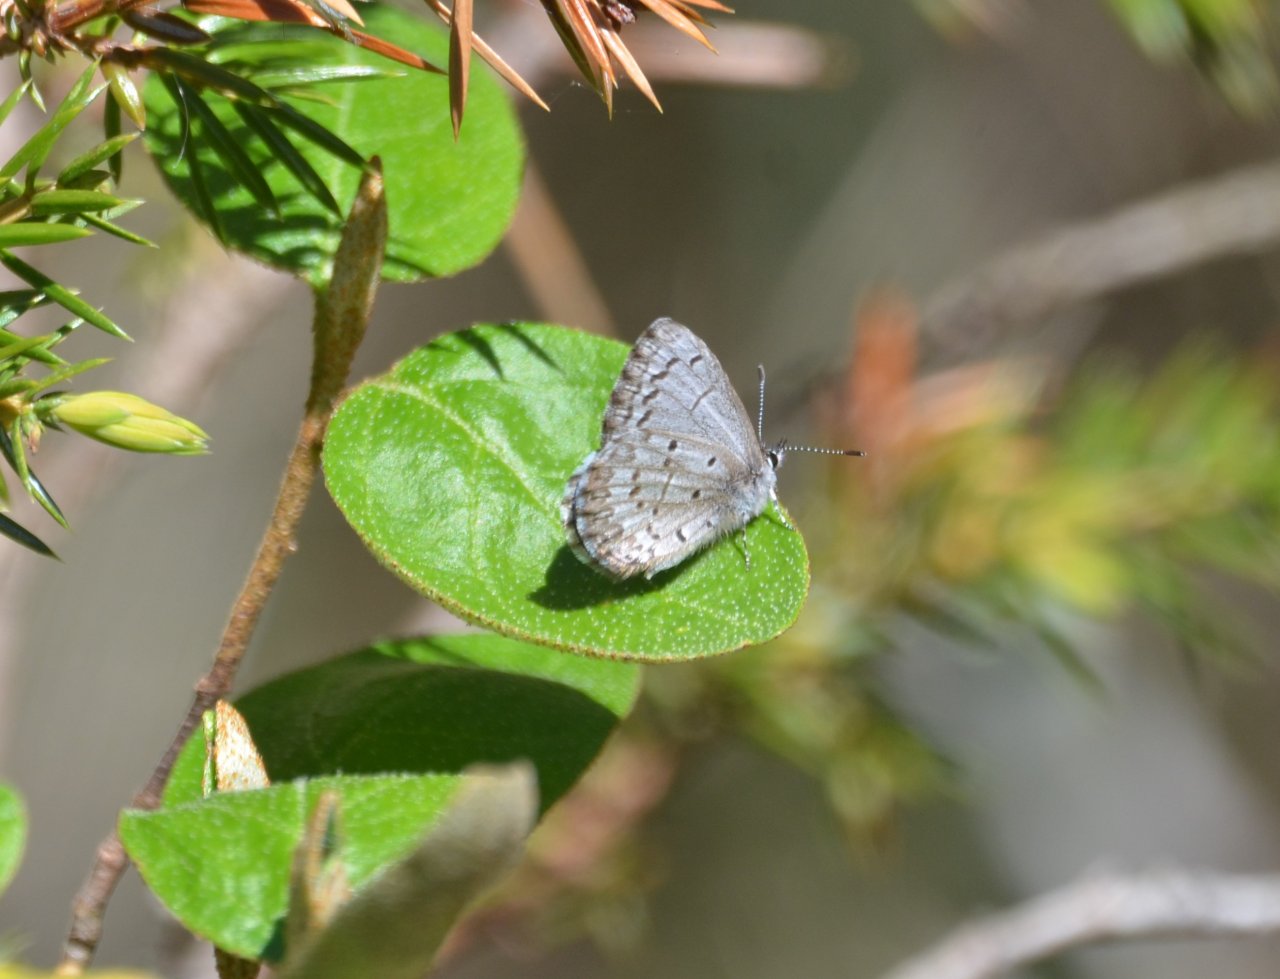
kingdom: Animalia
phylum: Arthropoda
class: Insecta
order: Lepidoptera
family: Lycaenidae
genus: Celastrina
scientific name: Celastrina lucia
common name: Northern Spring Azure
